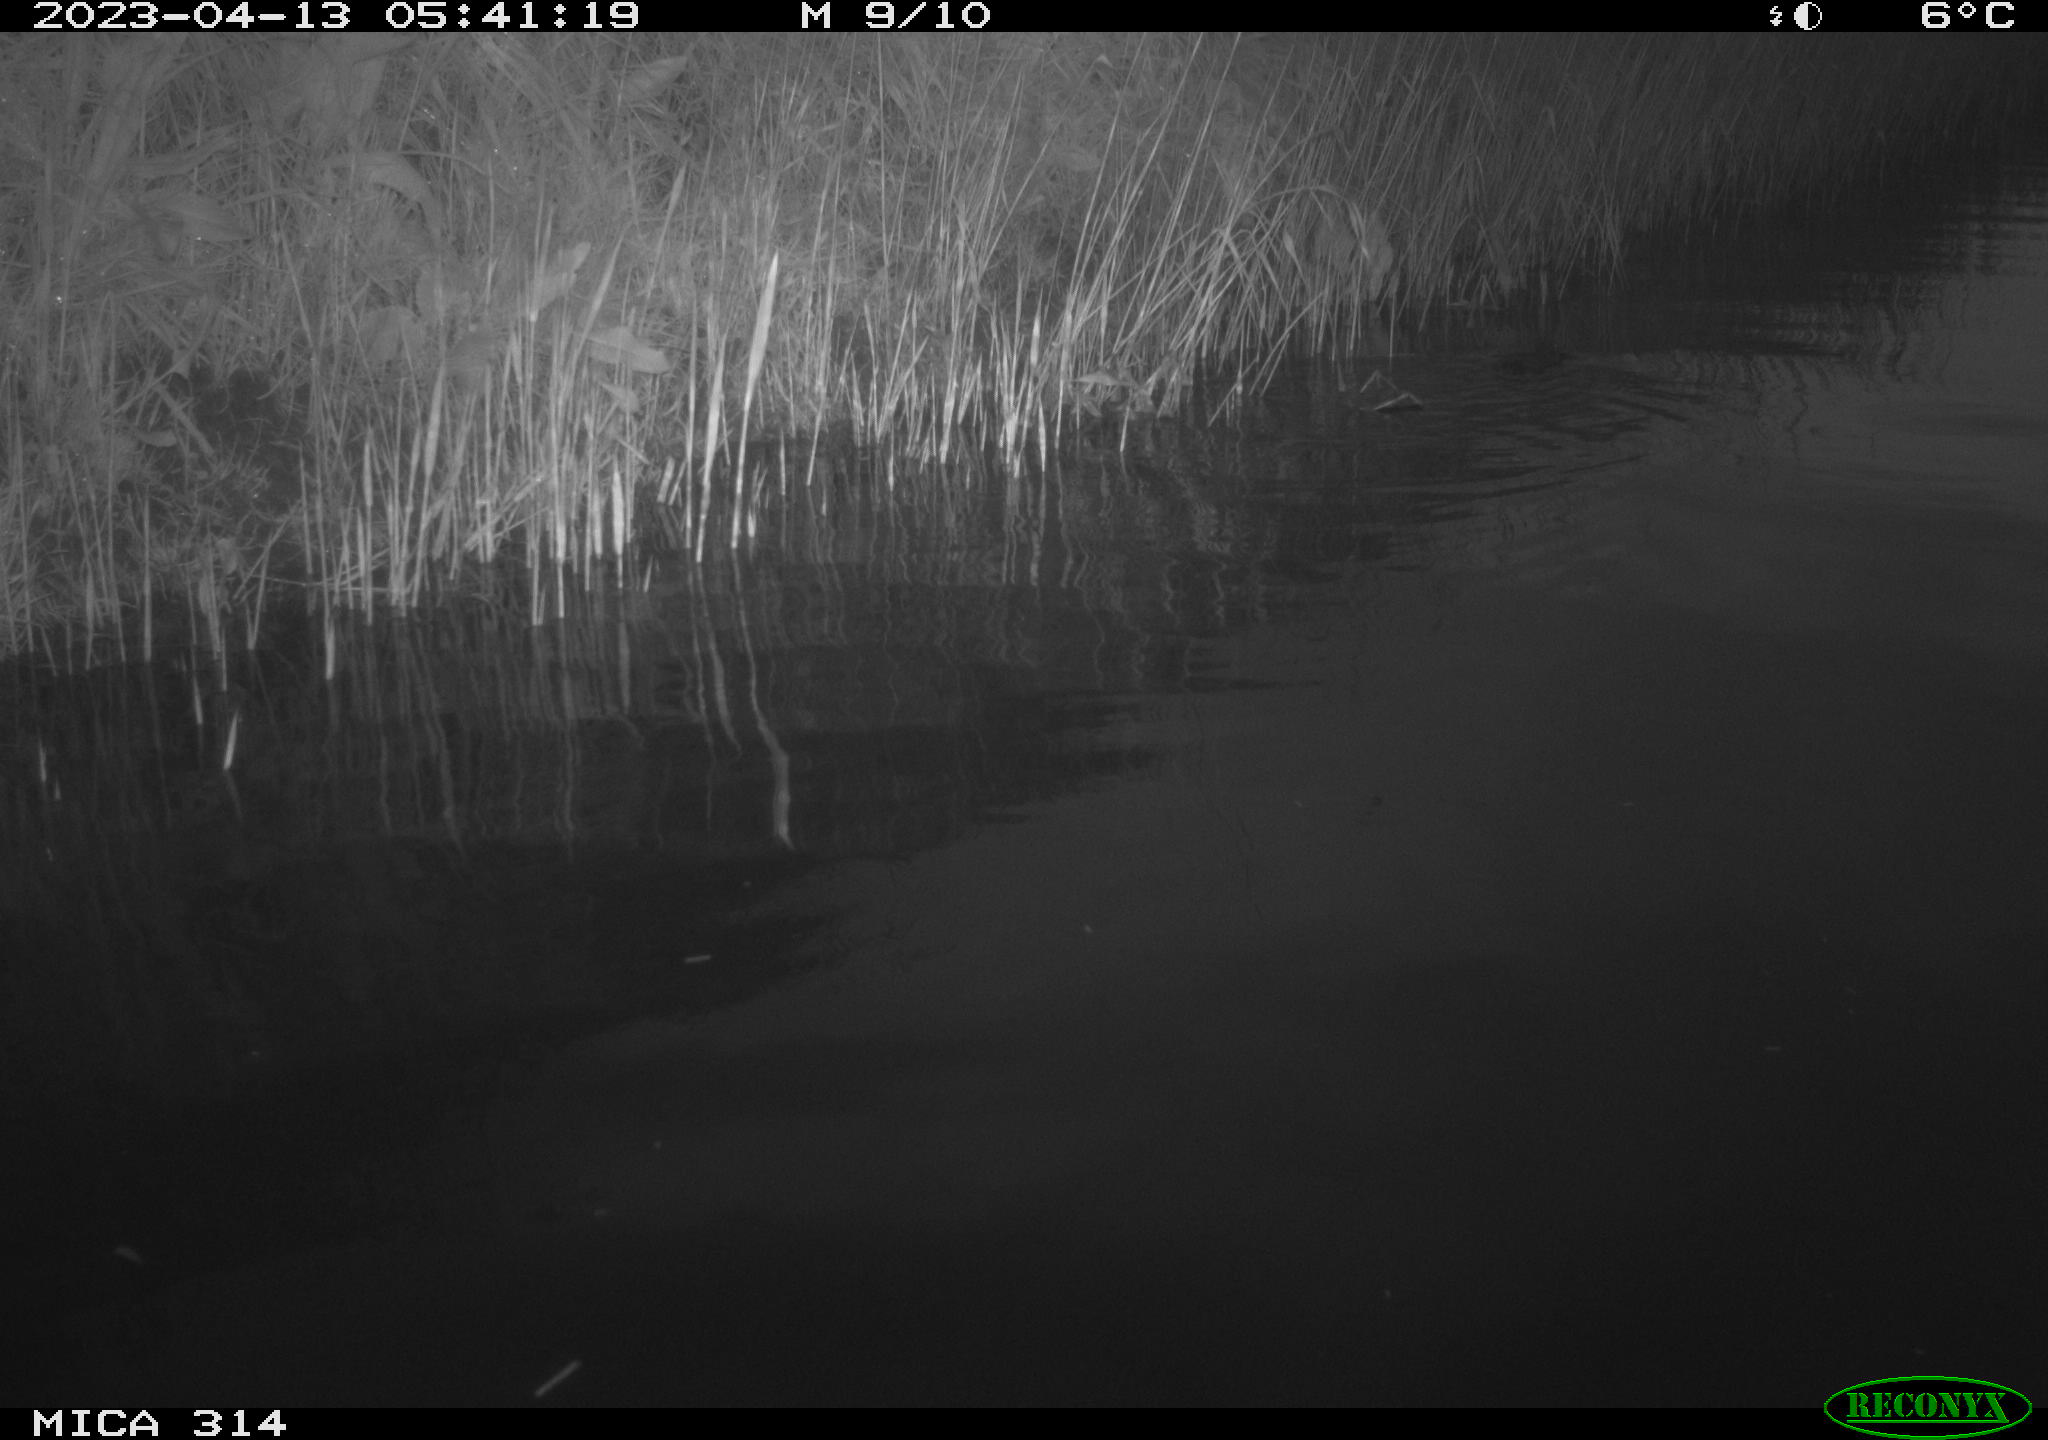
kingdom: Animalia
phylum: Chordata
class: Mammalia
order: Rodentia
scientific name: Rodentia
